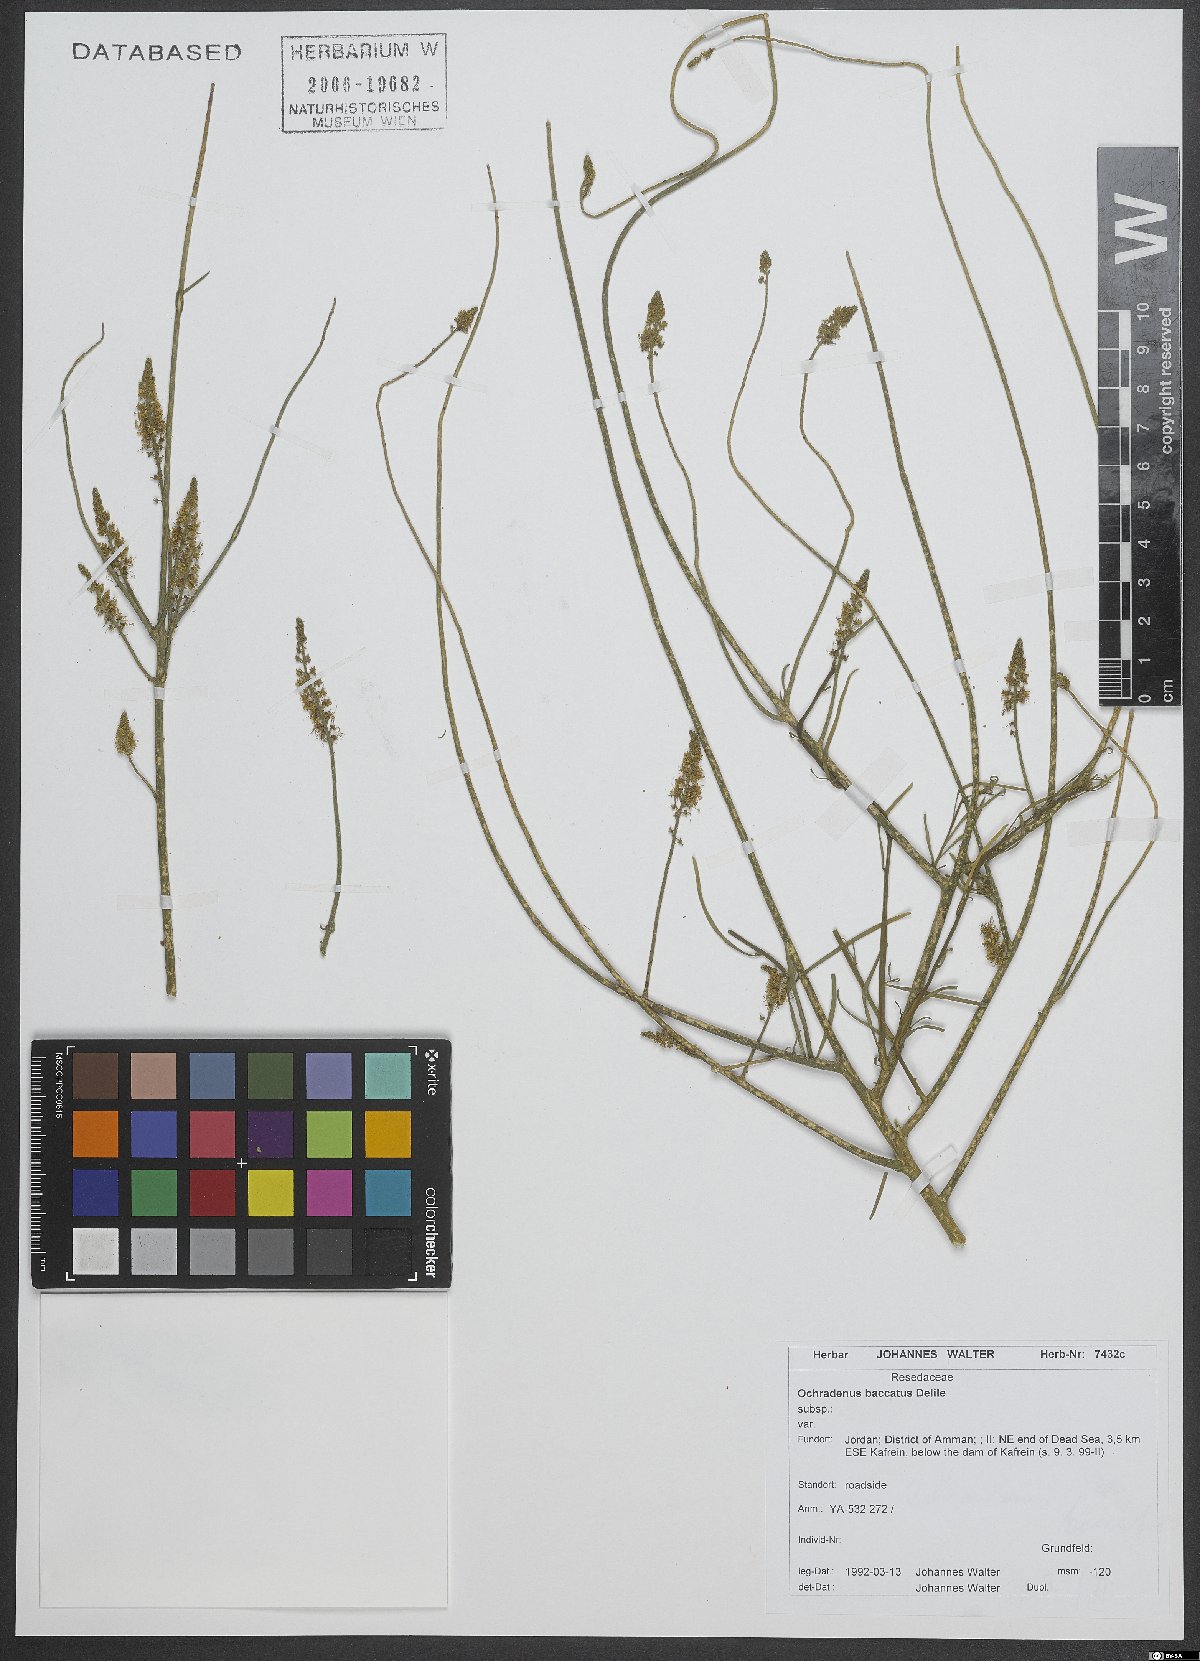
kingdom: Plantae
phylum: Tracheophyta
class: Magnoliopsida
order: Brassicales
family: Resedaceae
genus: Ochradenus
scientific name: Ochradenus baccatus
